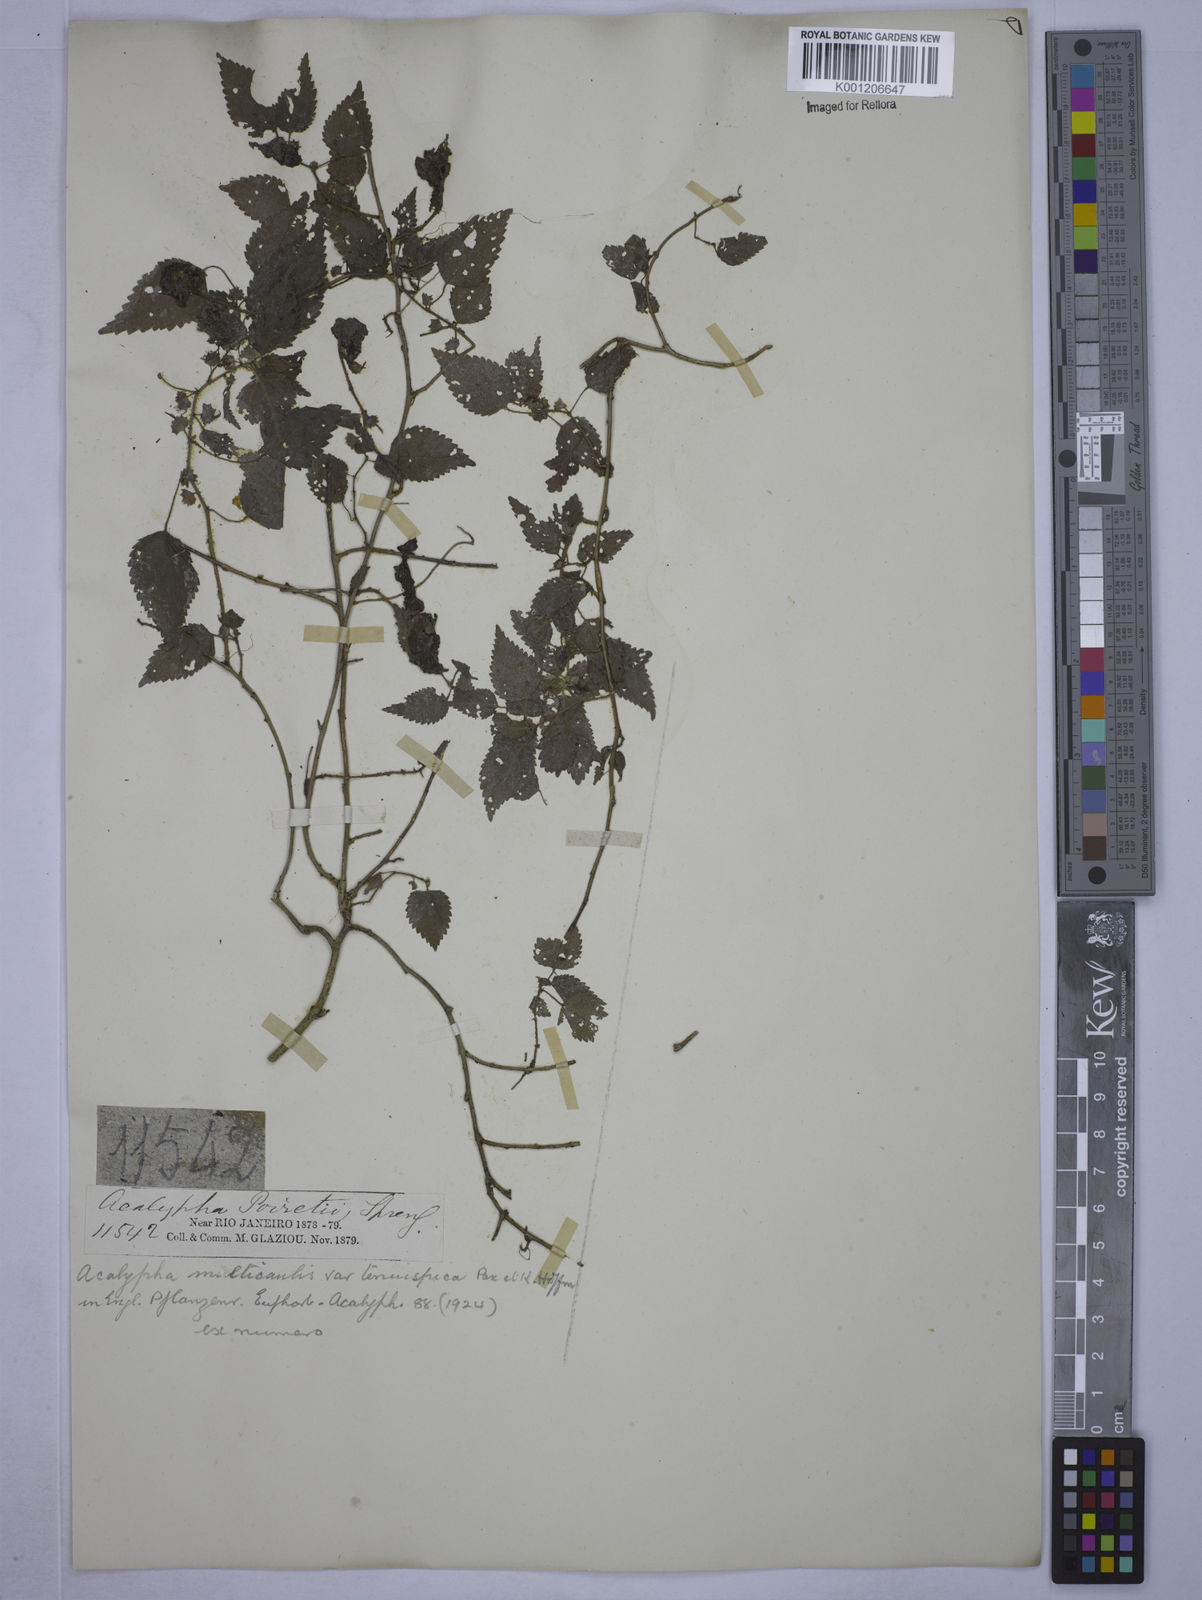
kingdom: Plantae
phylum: Tracheophyta
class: Magnoliopsida
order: Malpighiales
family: Euphorbiaceae
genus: Acalypha
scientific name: Acalypha
